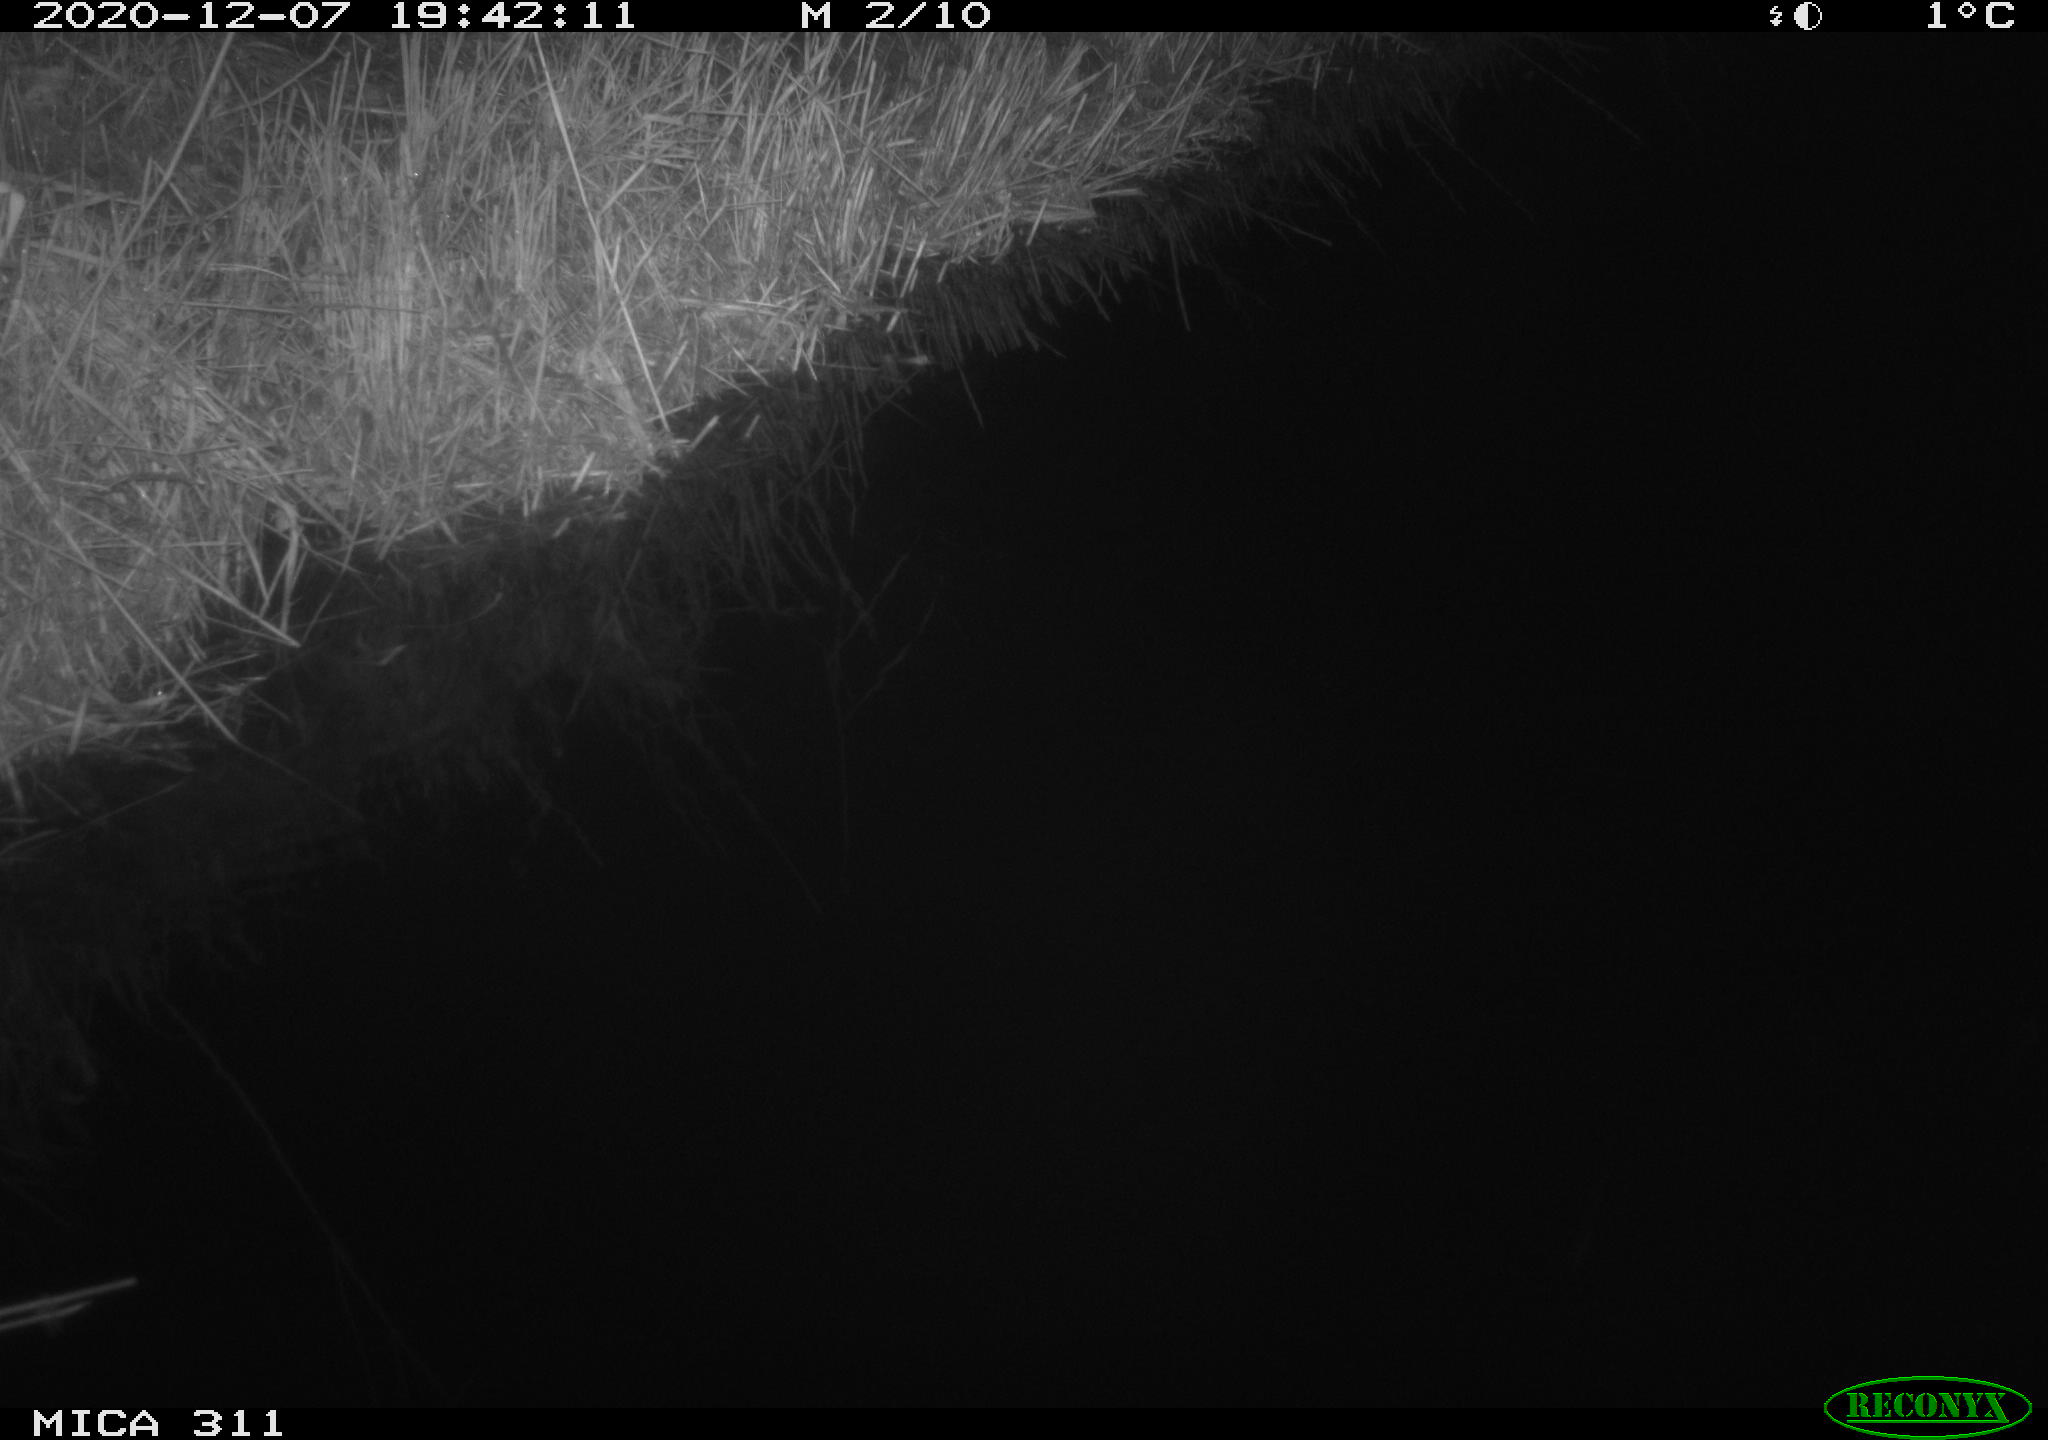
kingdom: Animalia
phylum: Chordata
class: Mammalia
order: Rodentia
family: Muridae
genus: Rattus
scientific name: Rattus norvegicus
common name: Brown rat
